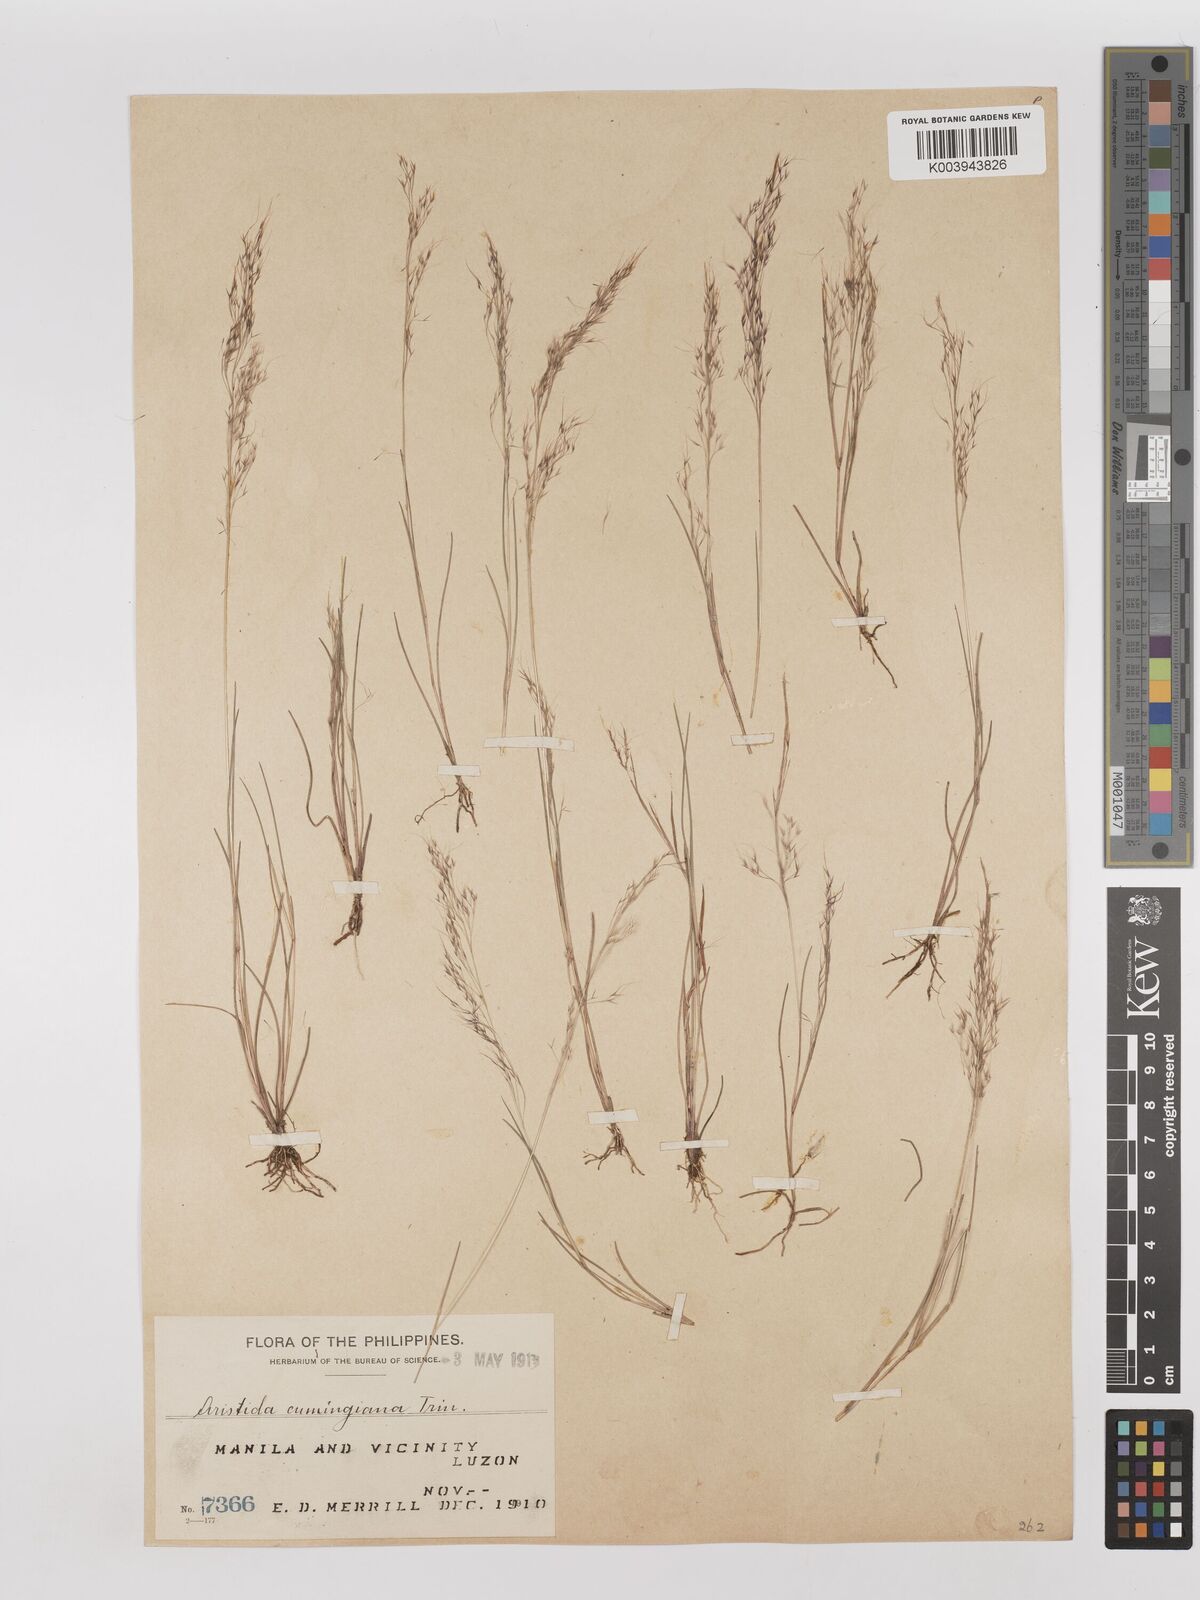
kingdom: Plantae
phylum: Tracheophyta
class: Liliopsida
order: Poales
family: Poaceae
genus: Aristida
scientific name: Aristida cumingiana
